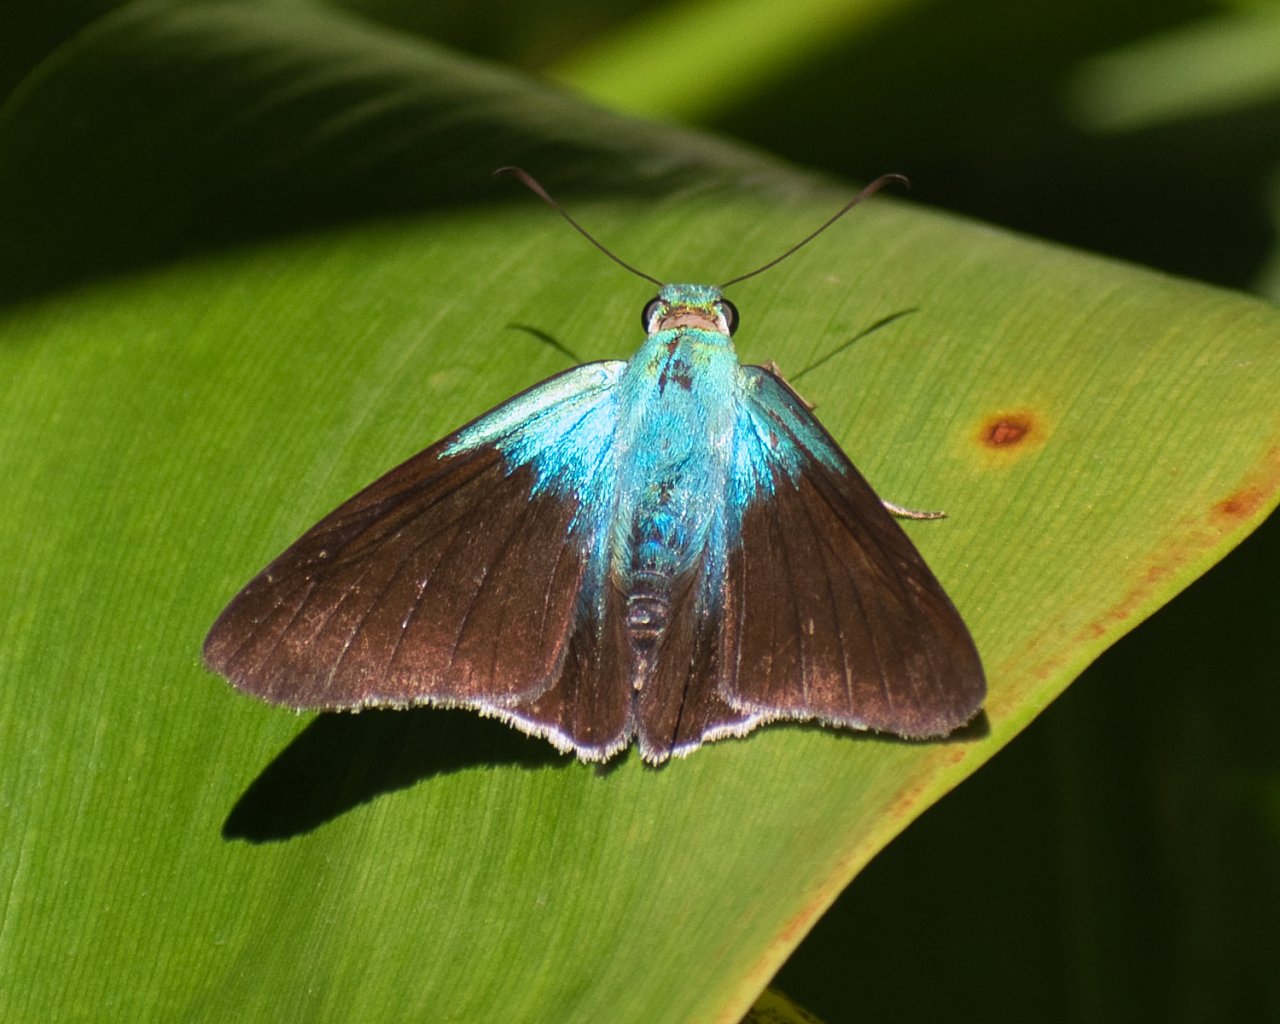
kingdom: Animalia
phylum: Arthropoda
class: Insecta
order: Lepidoptera
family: Hesperiidae
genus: Astraptes
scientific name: Astraptes alardus
